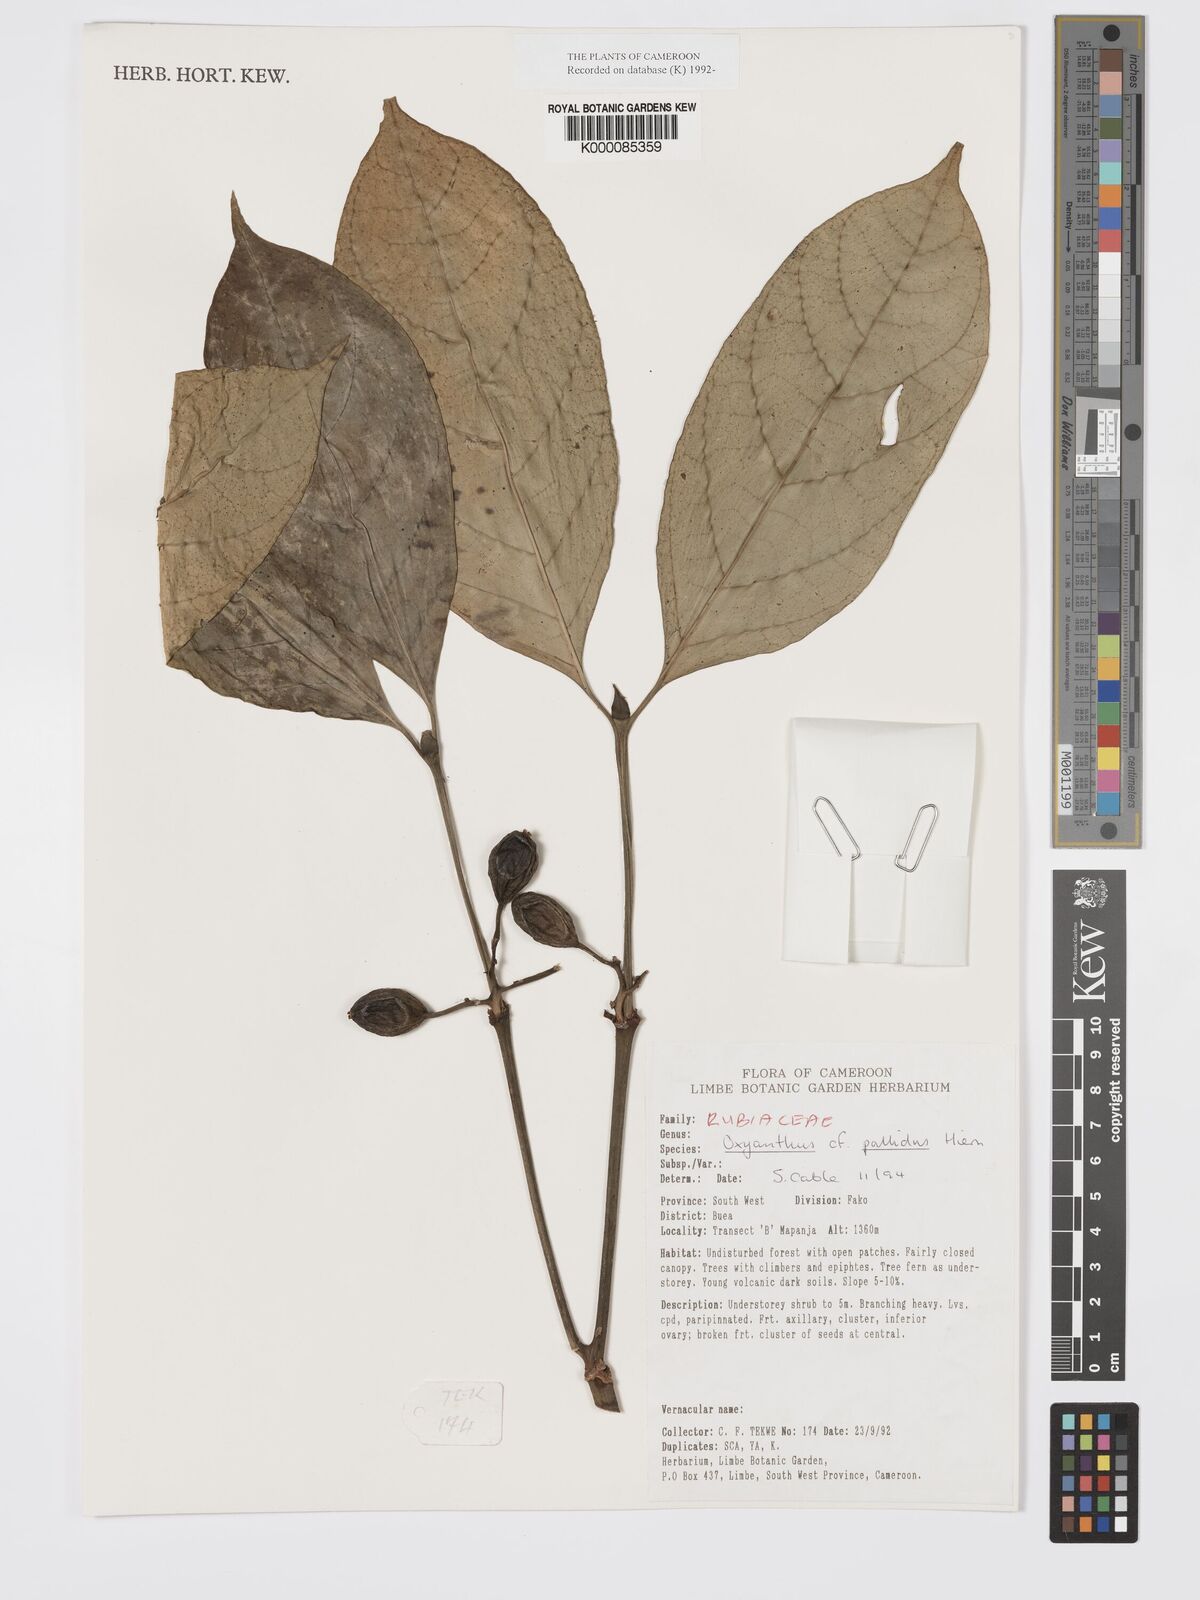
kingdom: Plantae
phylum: Tracheophyta
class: Magnoliopsida
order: Gentianales
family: Rubiaceae
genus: Oxyanthus
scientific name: Oxyanthus pallidus
